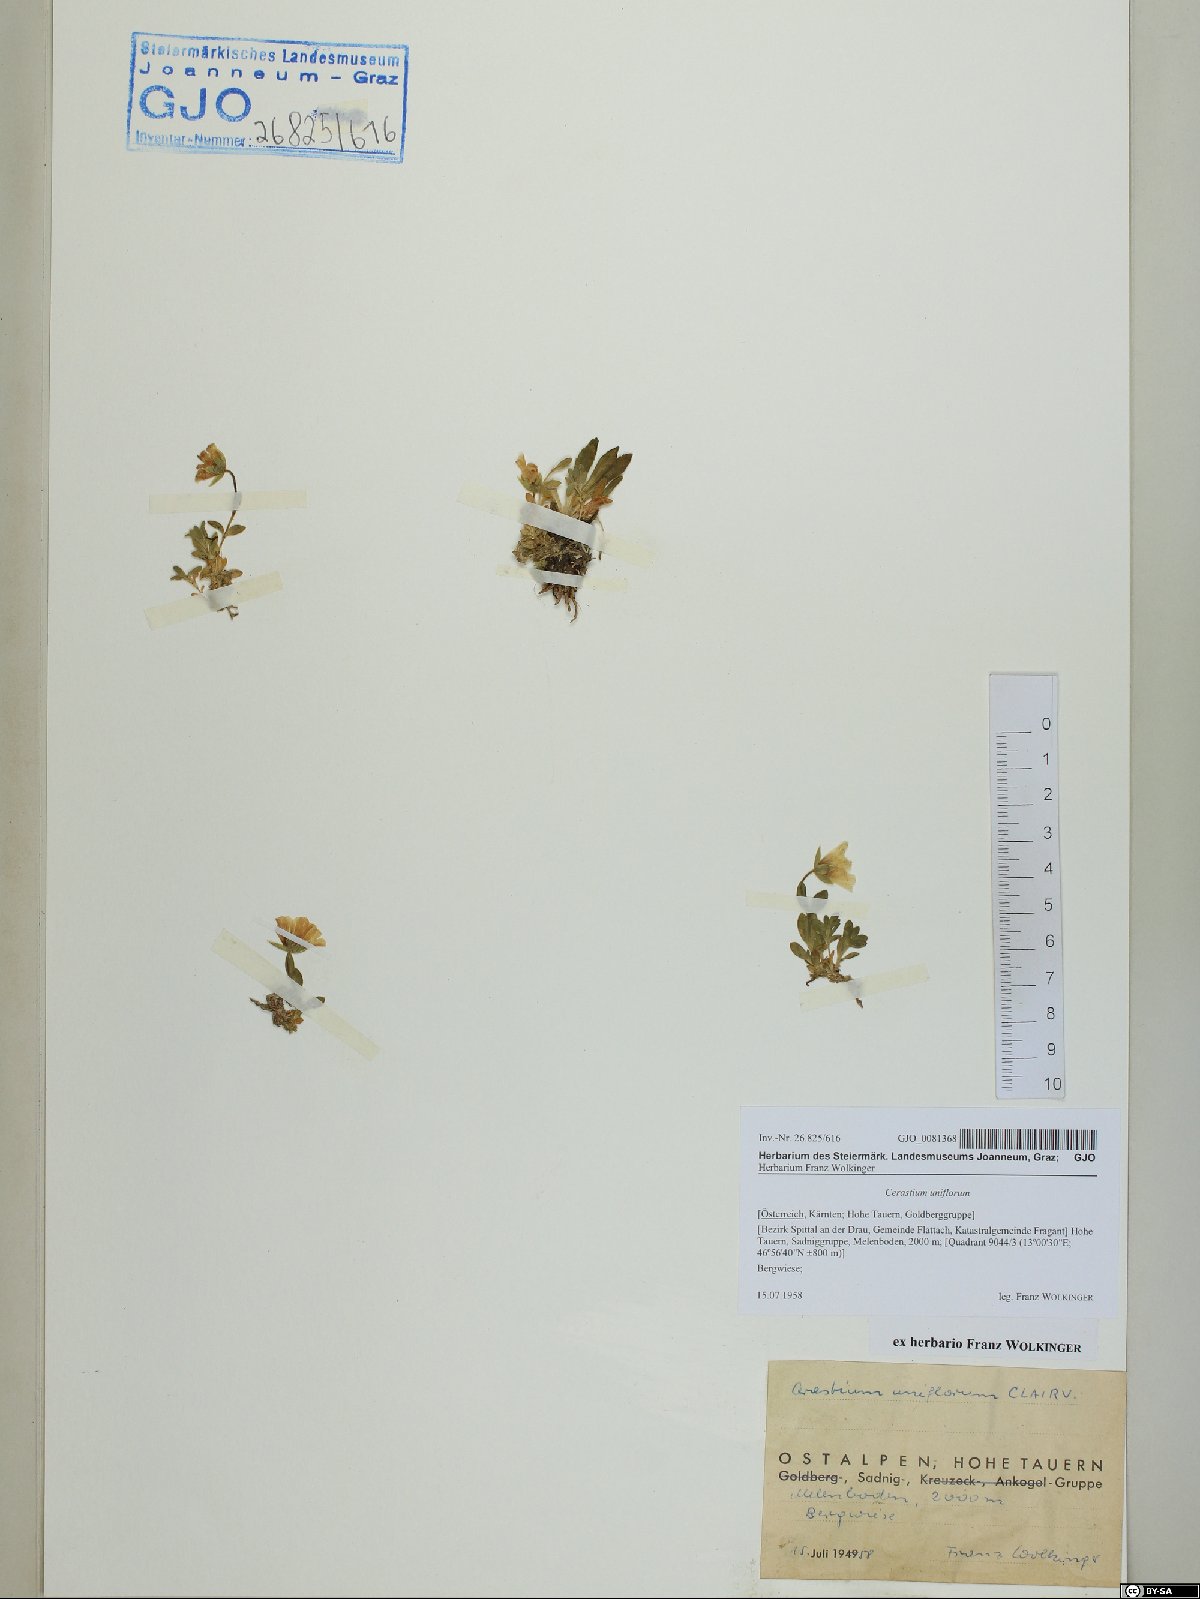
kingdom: Plantae
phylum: Tracheophyta
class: Magnoliopsida
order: Caryophyllales
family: Caryophyllaceae
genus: Cerastium
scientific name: Cerastium uniflorum
